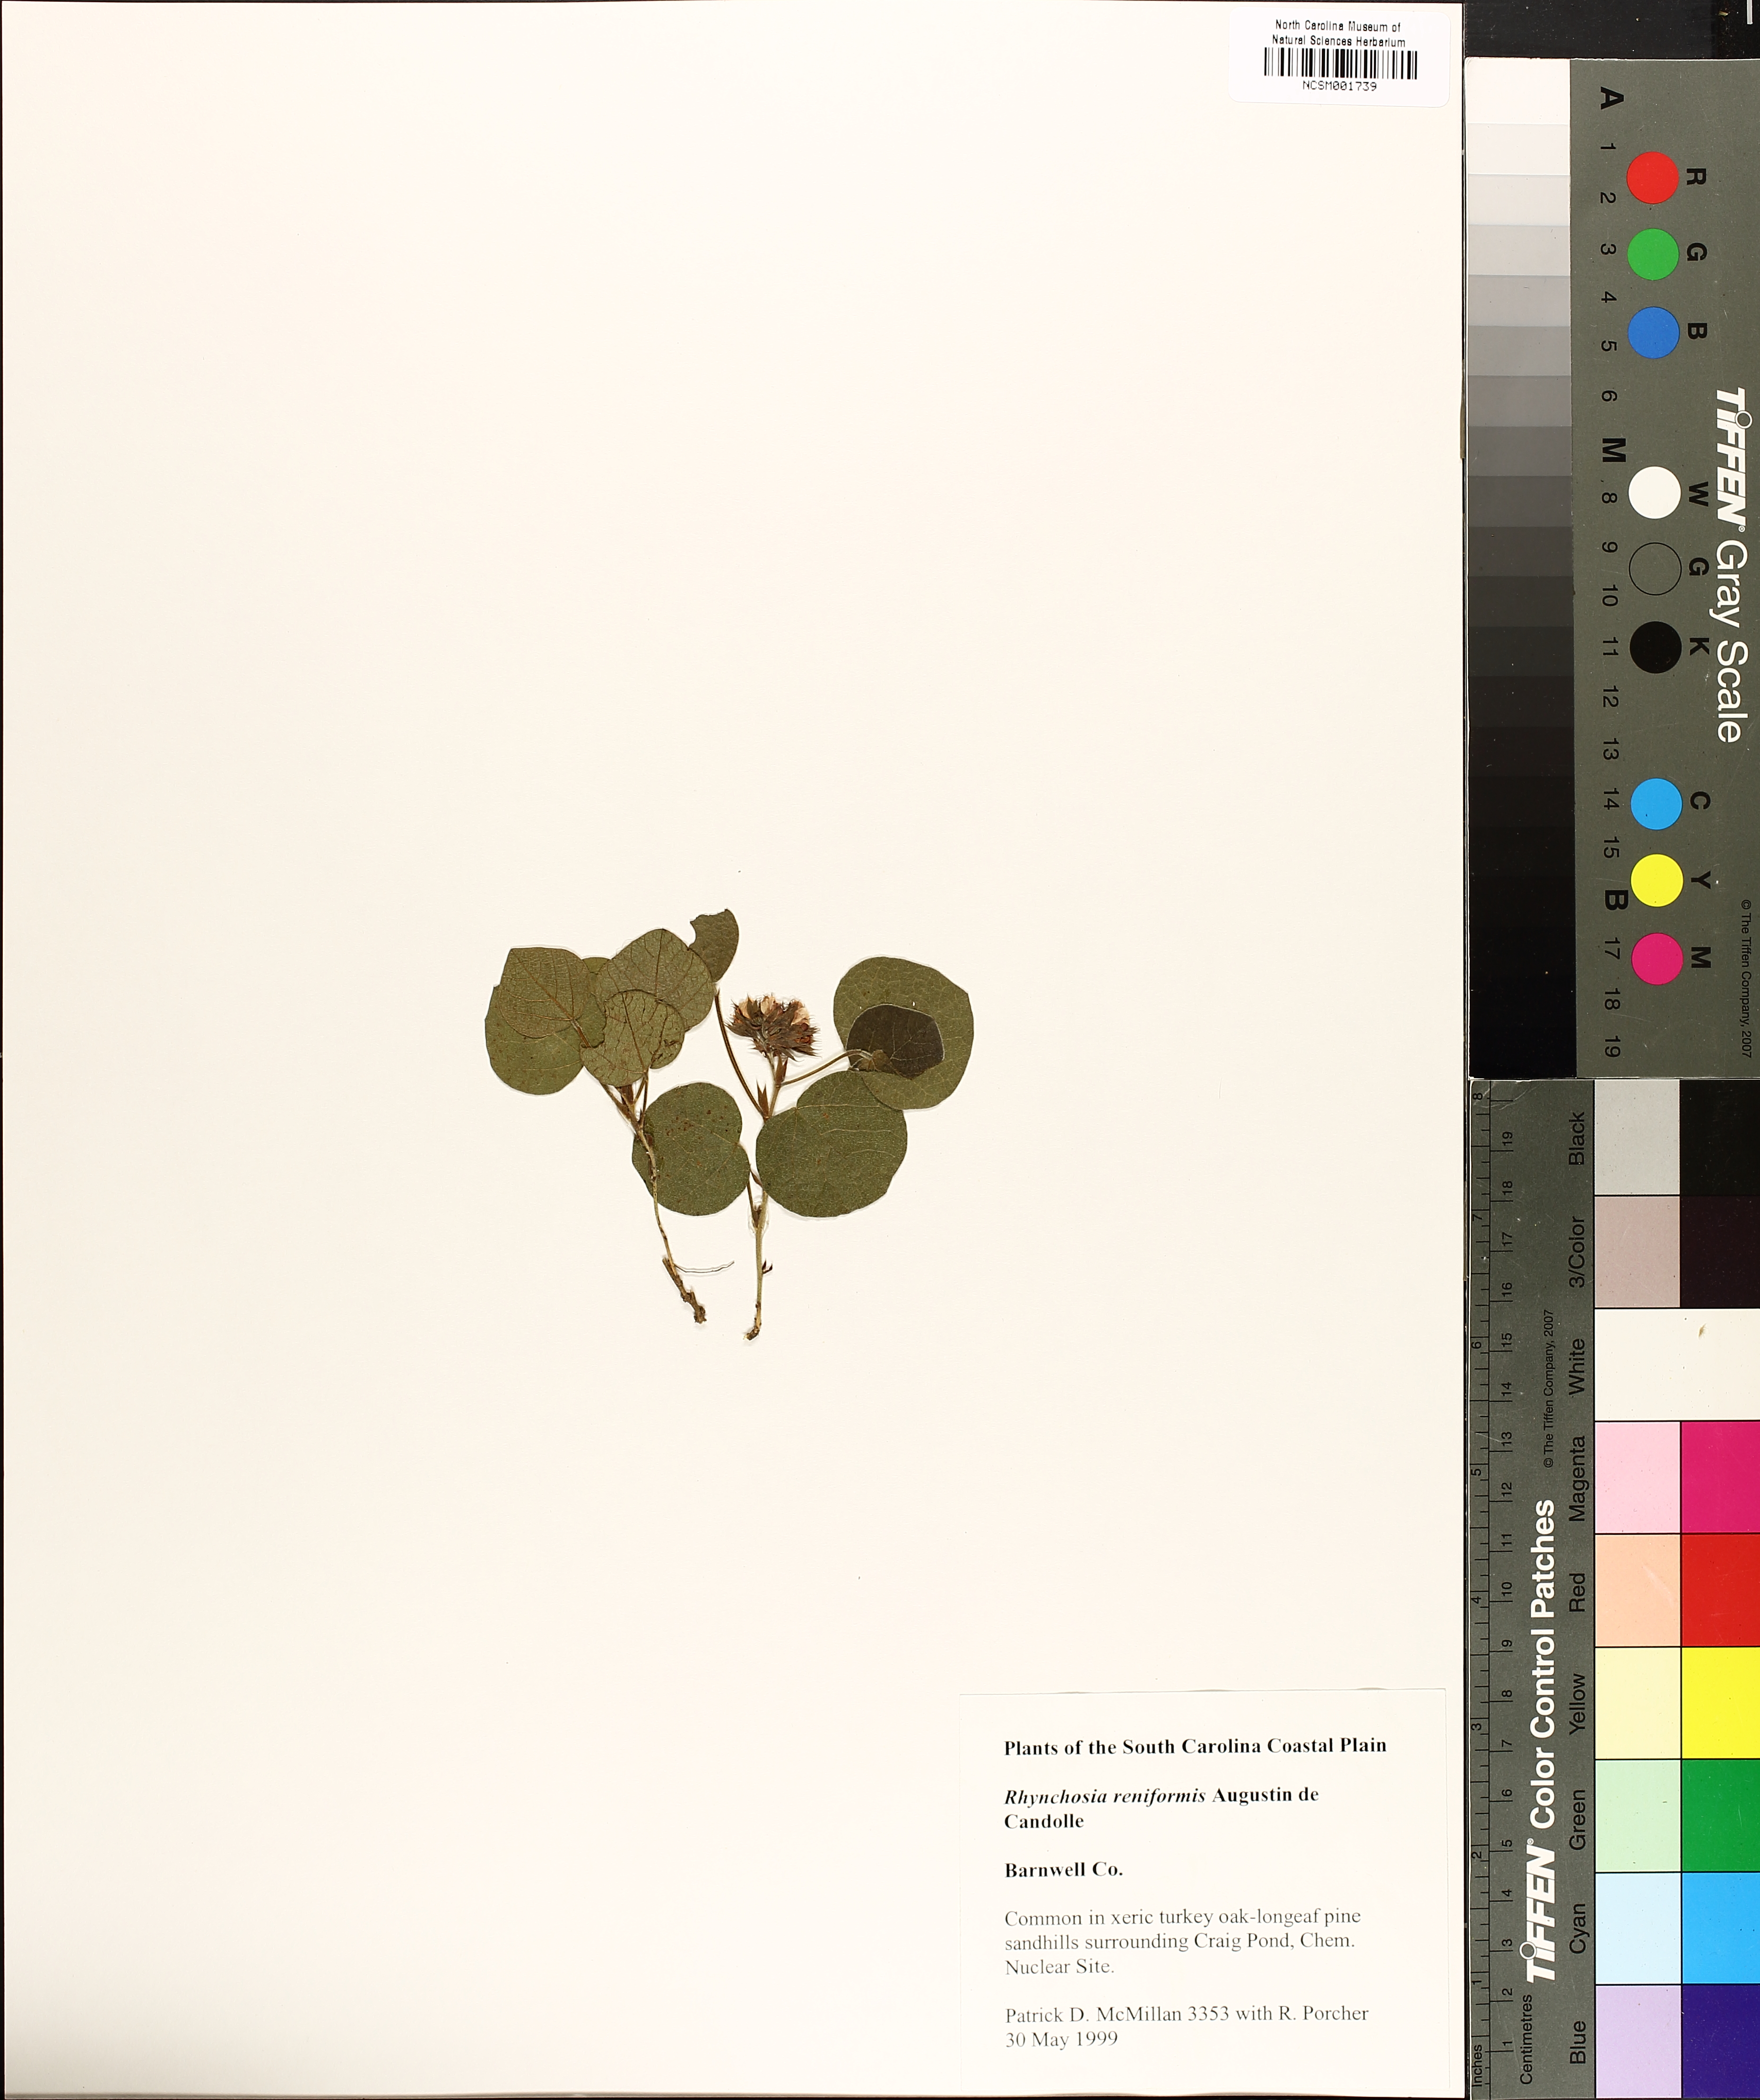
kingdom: Plantae
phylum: Tracheophyta
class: Magnoliopsida
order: Fabales
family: Fabaceae
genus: Rhynchosia
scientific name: Rhynchosia reniformis
